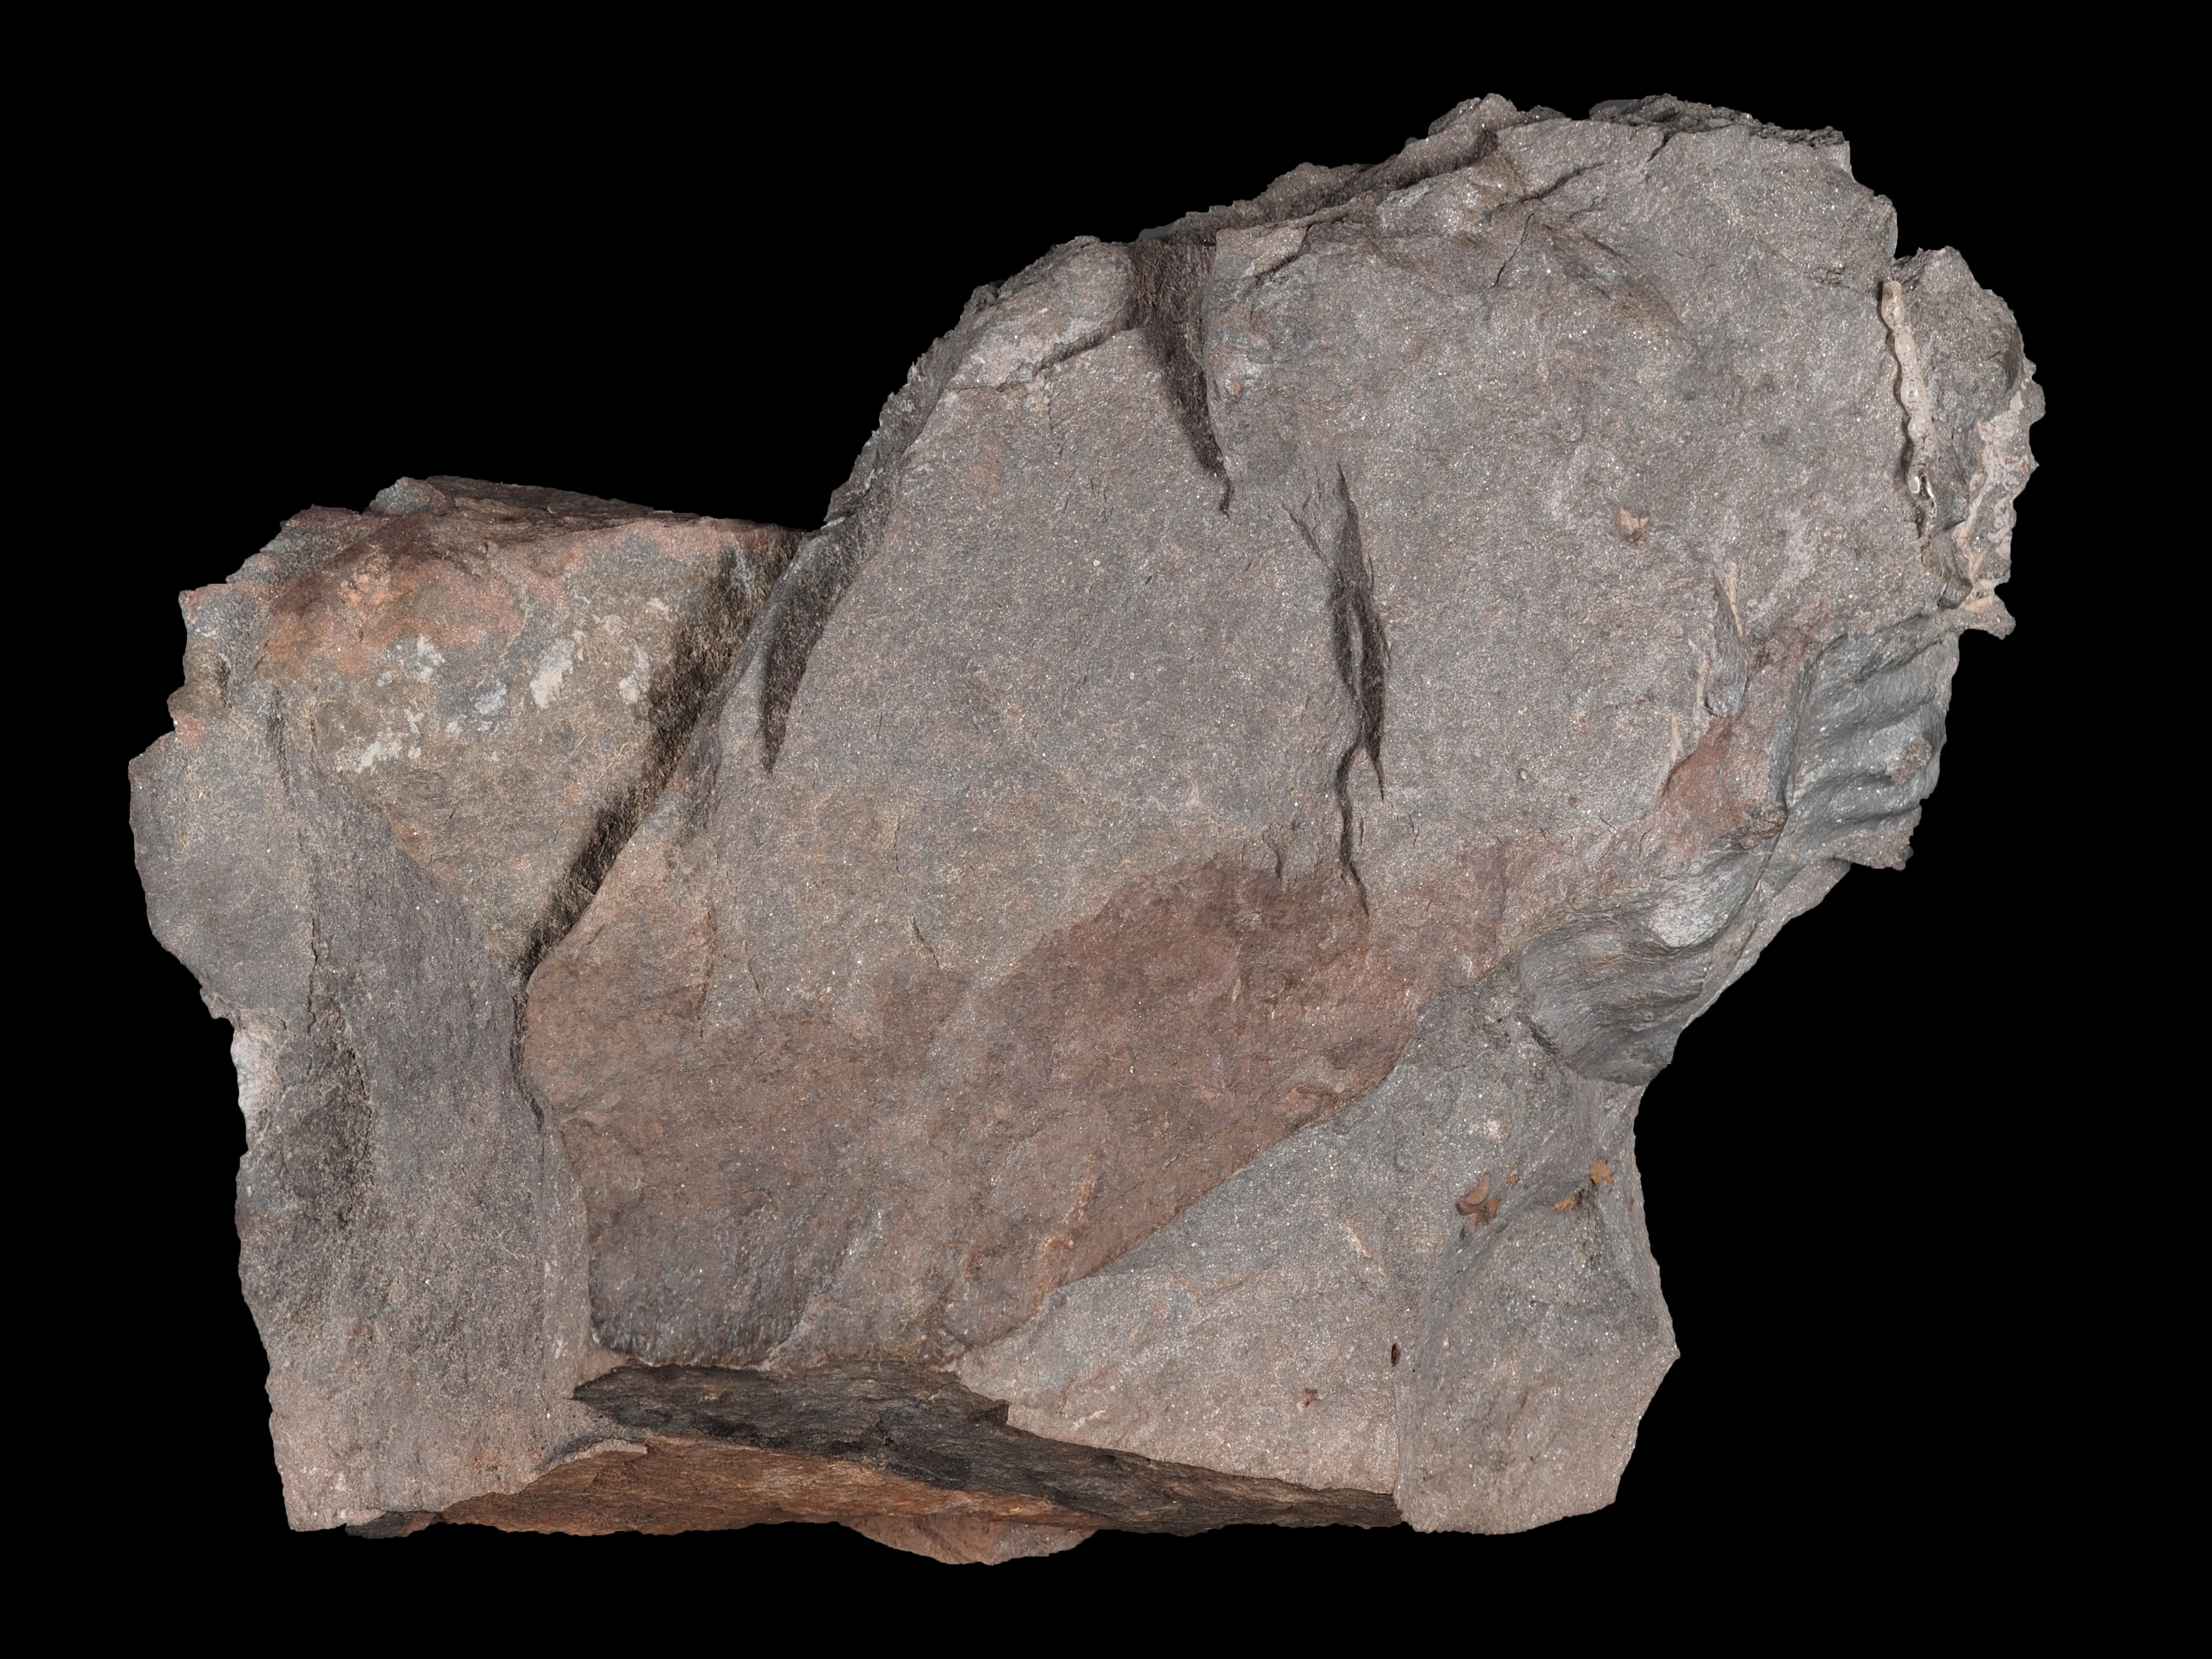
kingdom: Animalia
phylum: Arthropoda
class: Trilobita
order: Phacopida
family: Bathycheilidae
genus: Burmeisterella
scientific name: Burmeisterella
